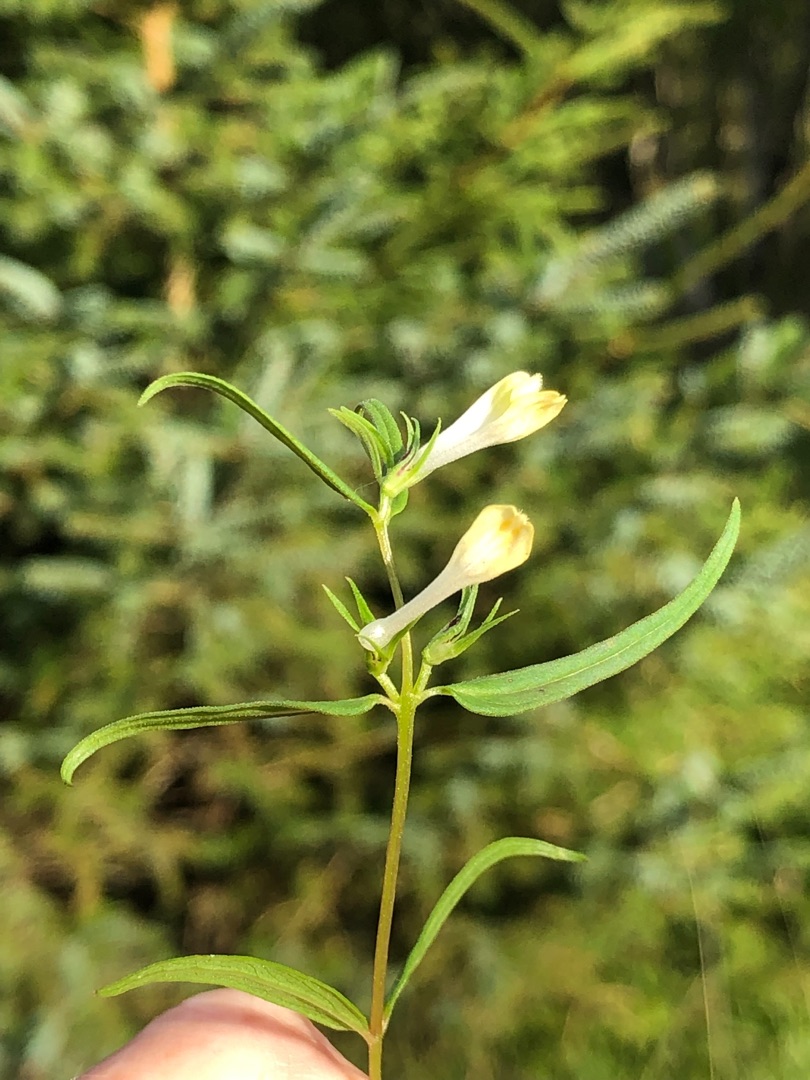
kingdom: Plantae
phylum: Tracheophyta
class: Magnoliopsida
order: Lamiales
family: Orobanchaceae
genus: Melampyrum
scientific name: Melampyrum pratense
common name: Almindelig kohvede
